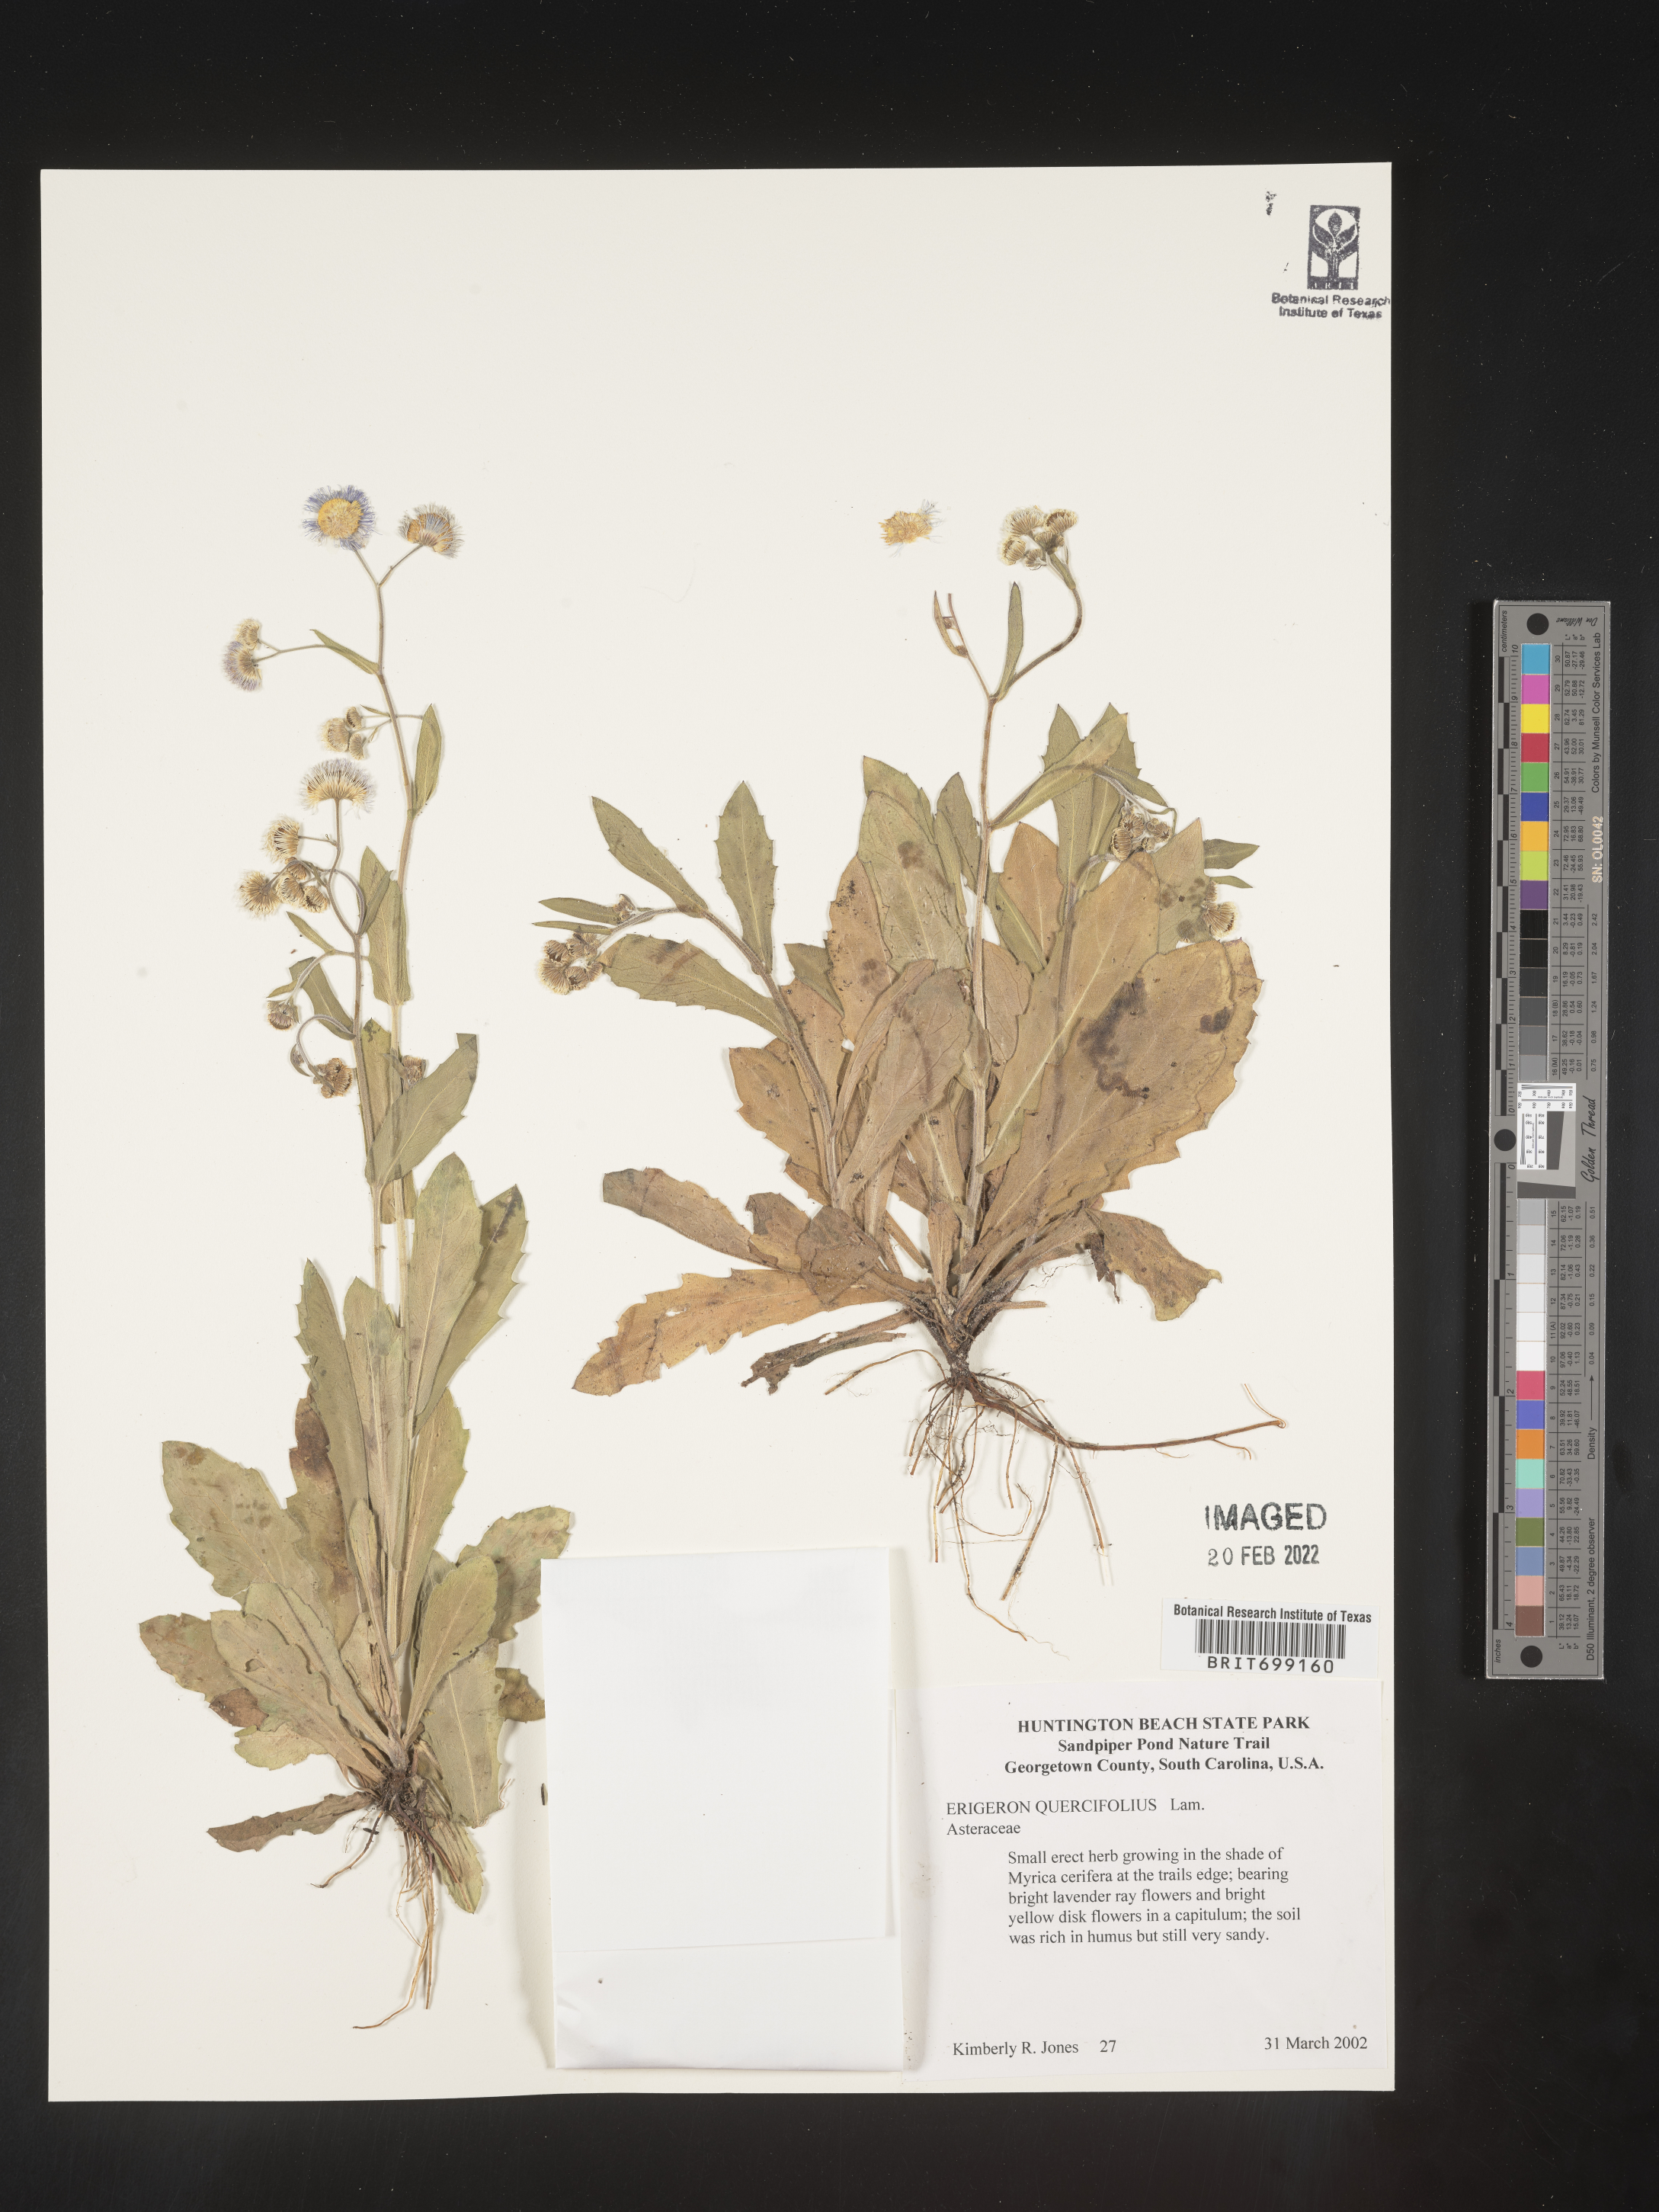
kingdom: Plantae
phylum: Tracheophyta
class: Magnoliopsida
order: Asterales
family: Asteraceae
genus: Erigeron
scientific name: Erigeron quercifolius
